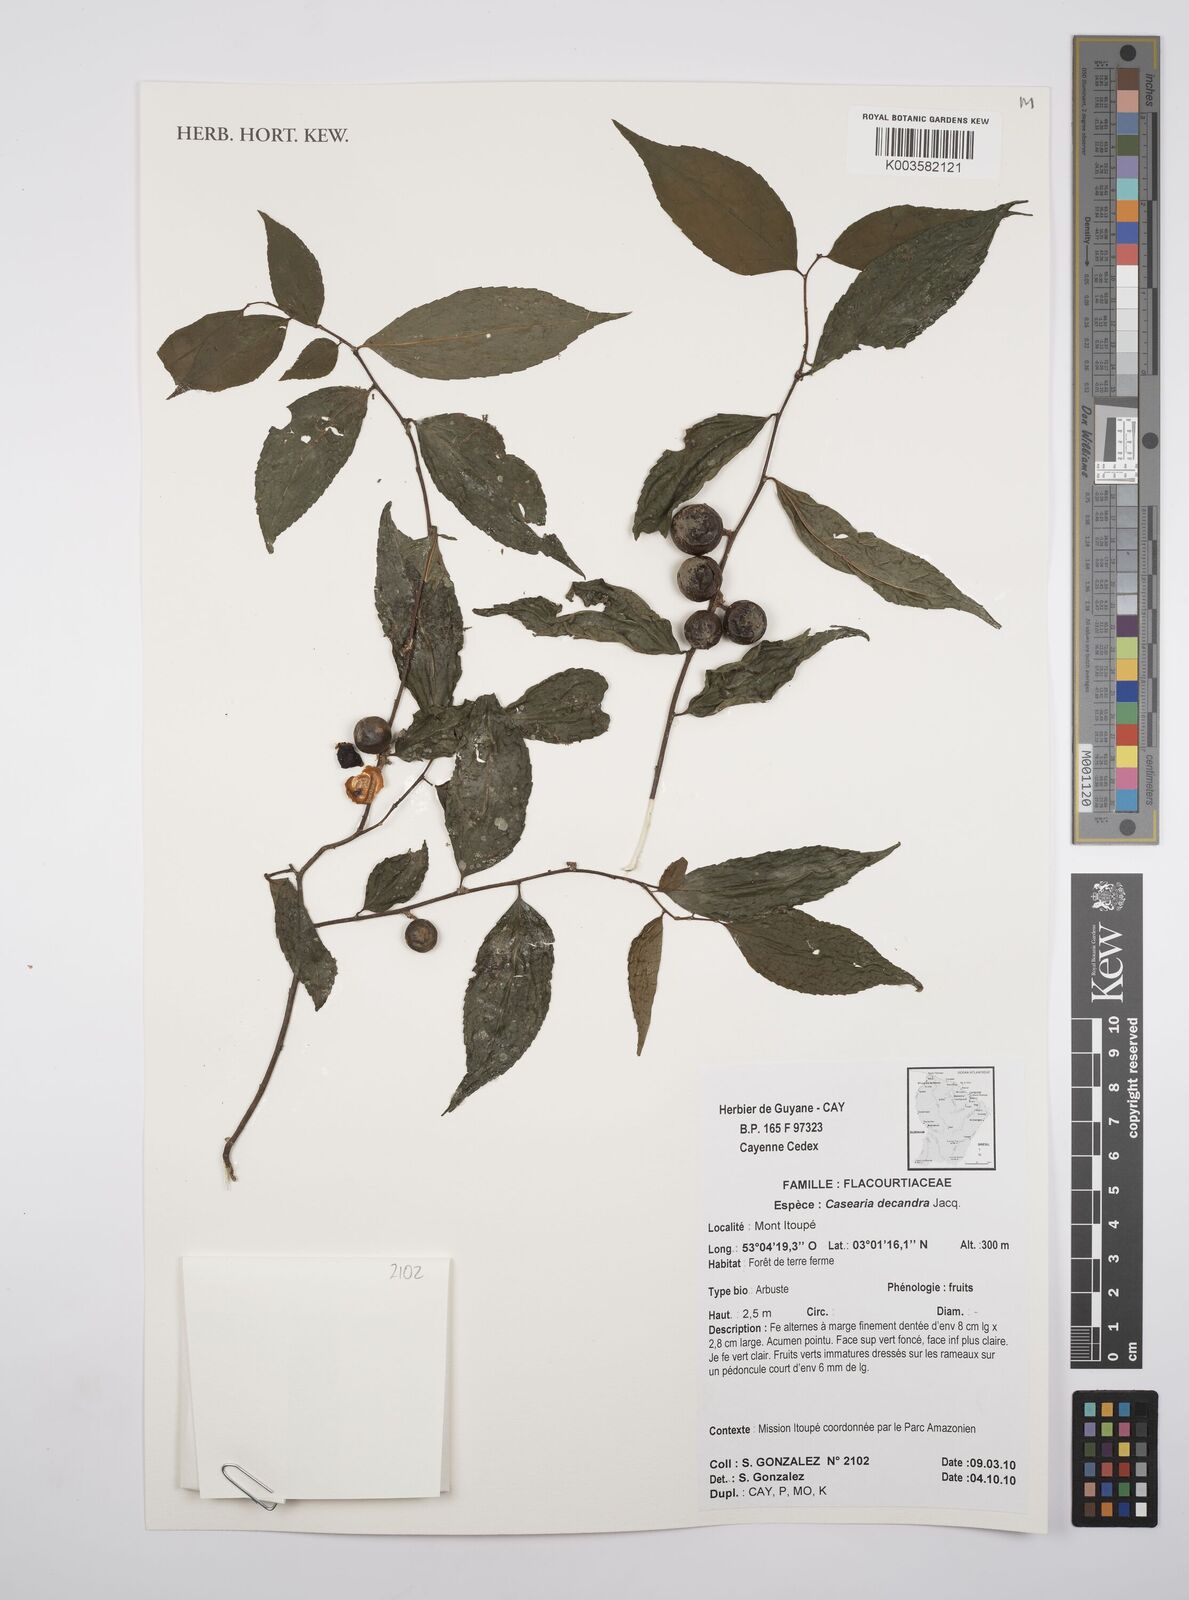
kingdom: Plantae
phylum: Tracheophyta
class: Magnoliopsida
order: Malpighiales
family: Salicaceae
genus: Casearia
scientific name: Casearia decandra
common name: Crack open
